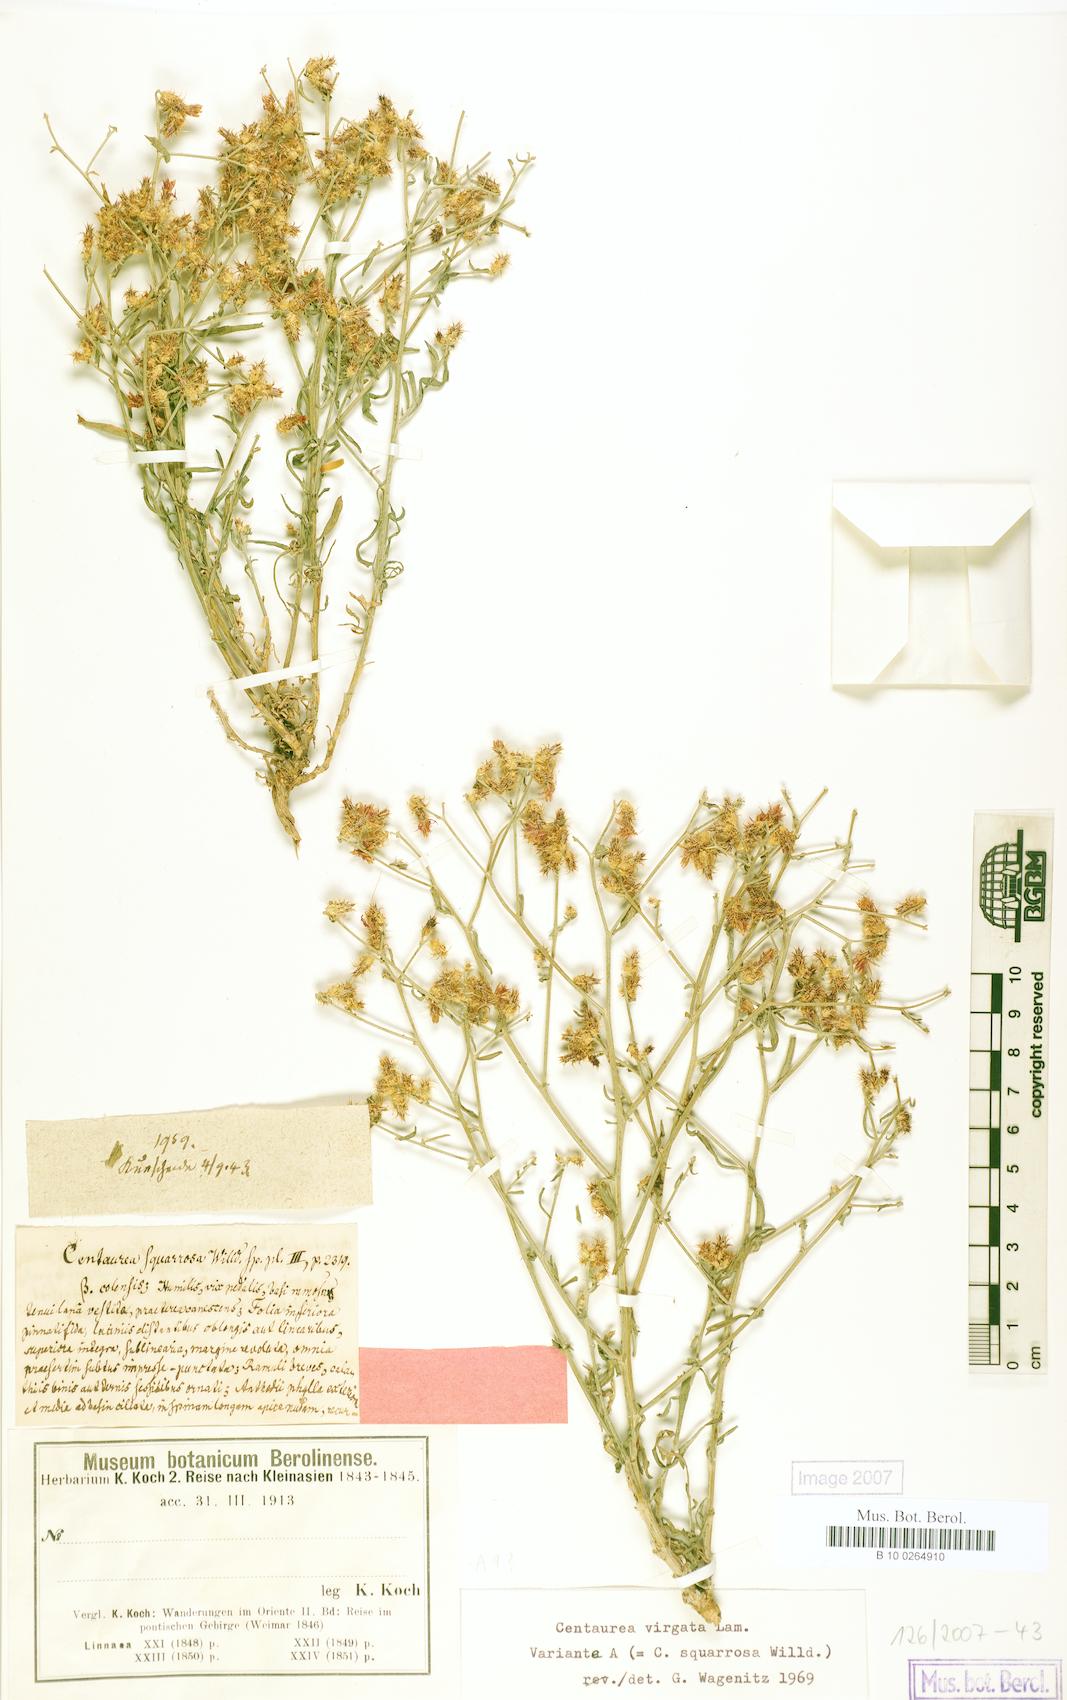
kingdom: Plantae
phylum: Tracheophyta
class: Magnoliopsida
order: Asterales
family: Asteraceae
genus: Centaurea
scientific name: Centaurea virgata
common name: Squarrose knapweed
